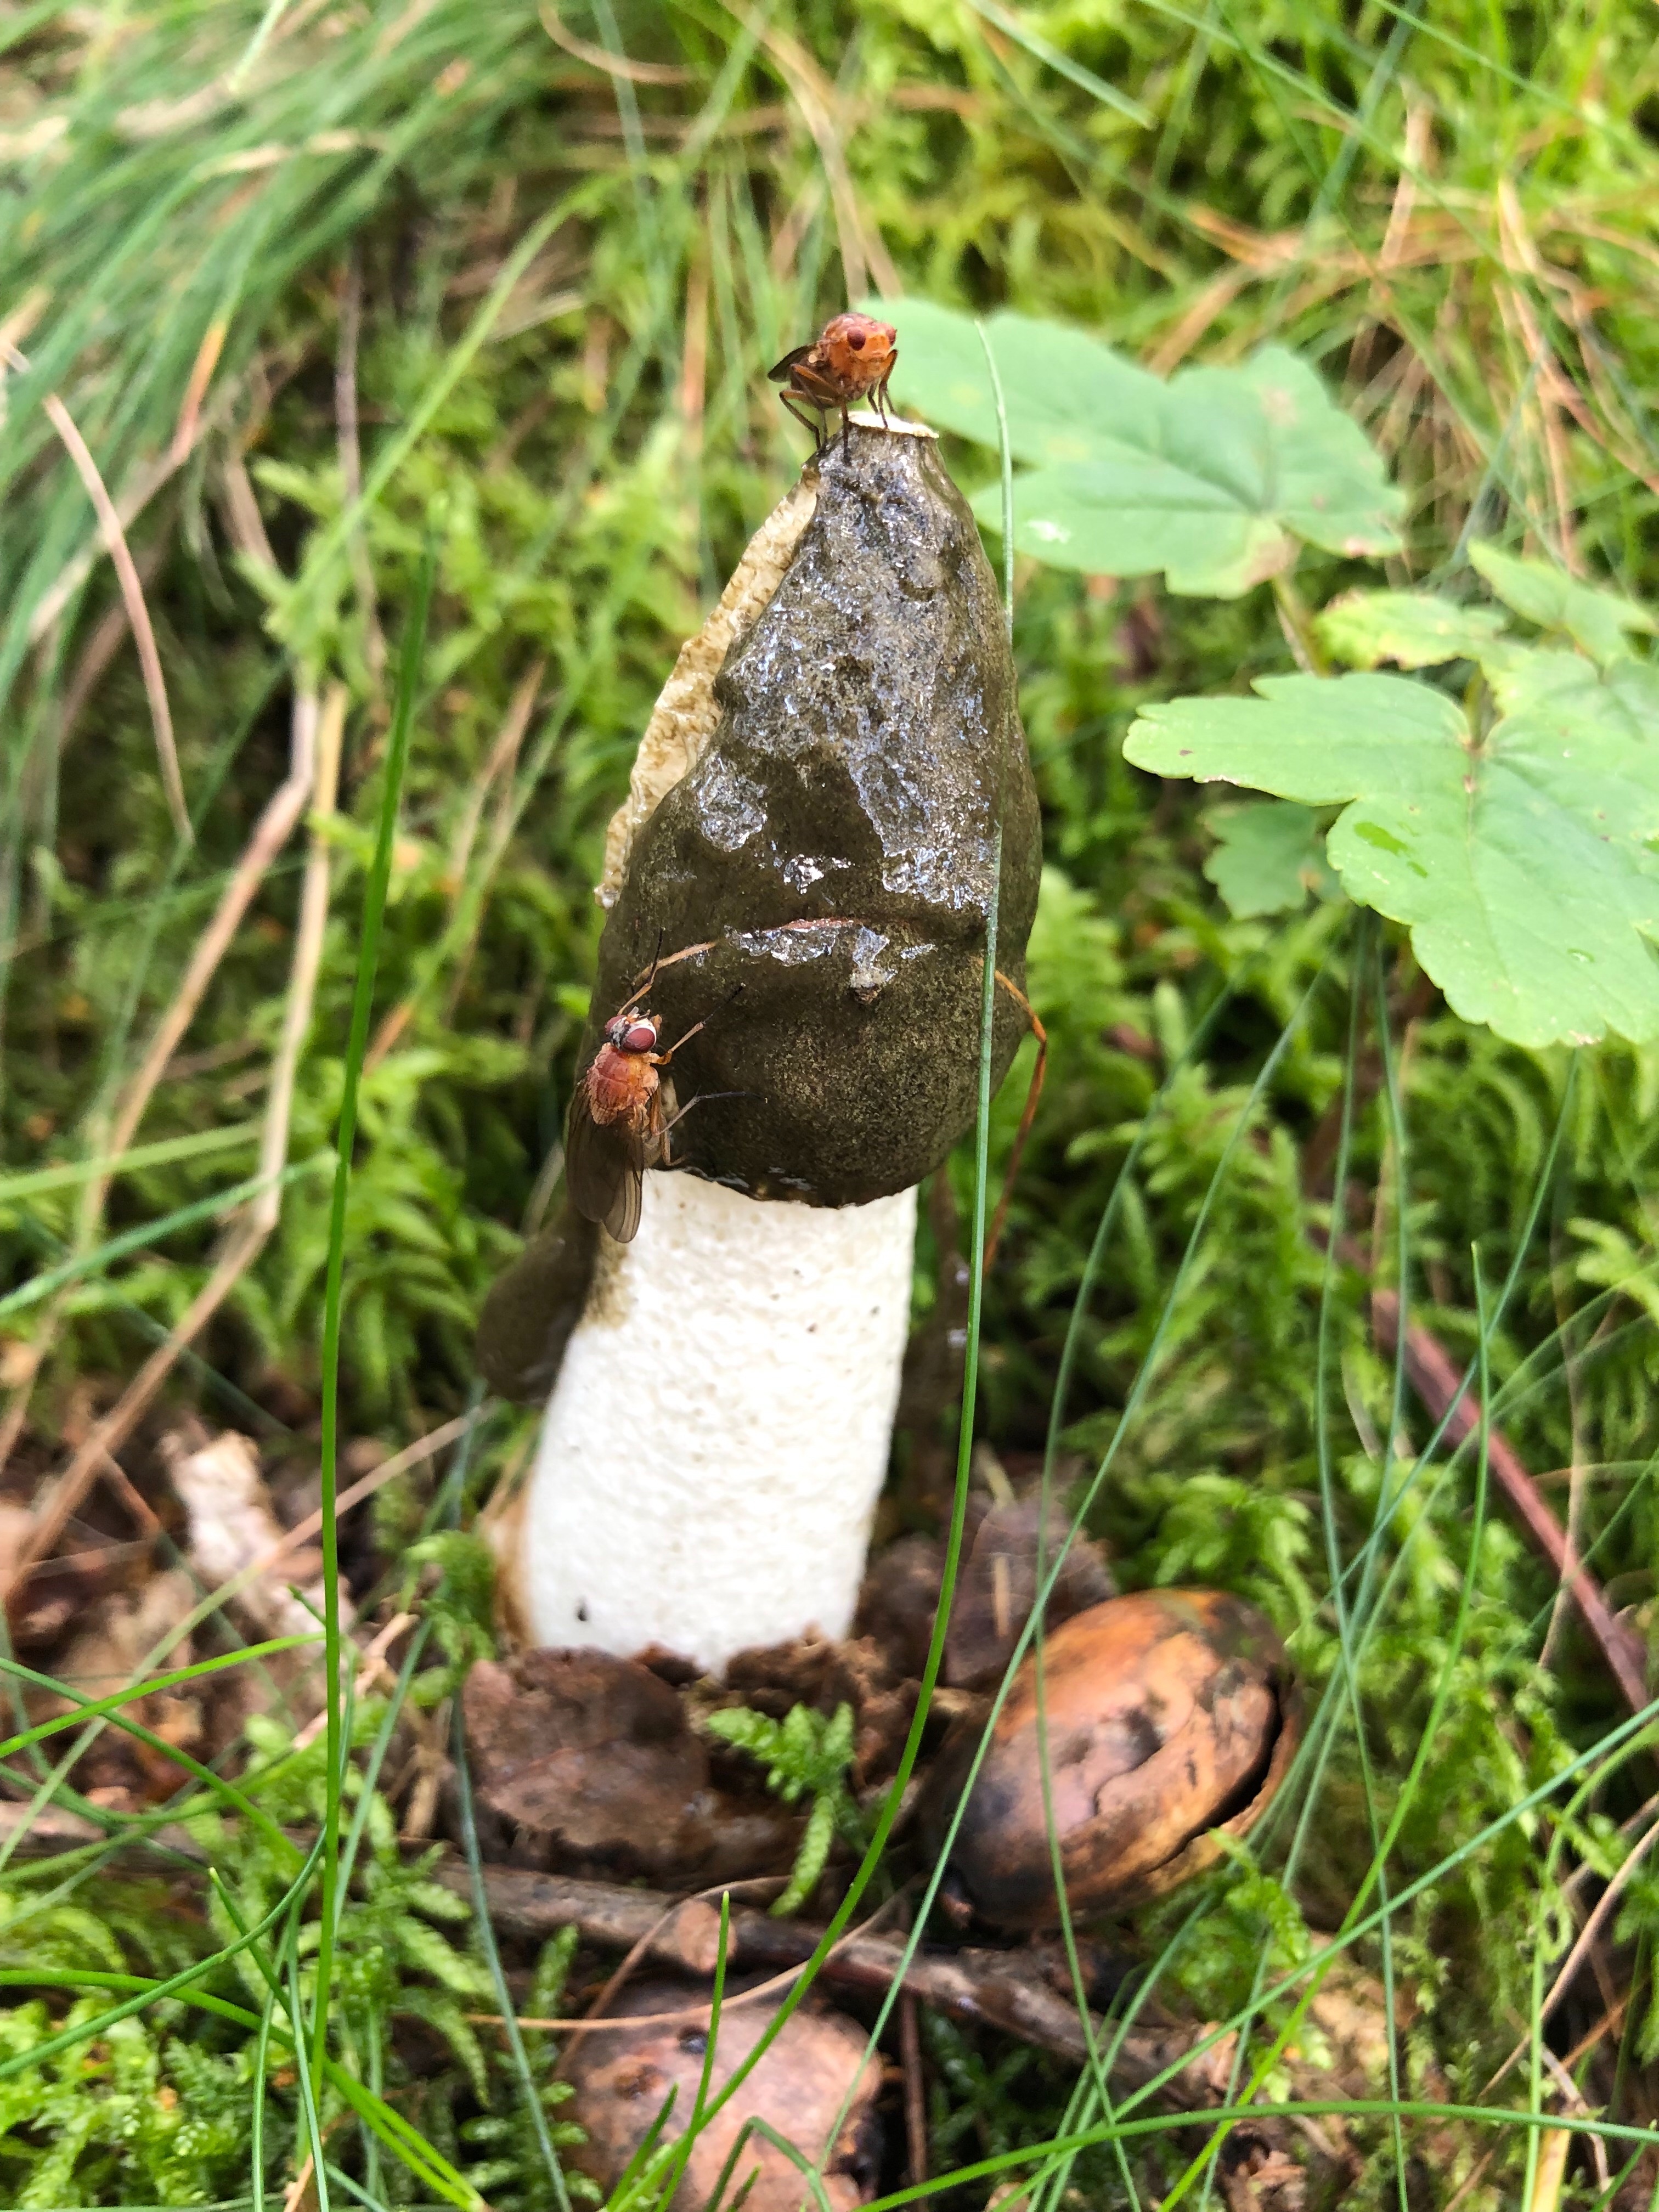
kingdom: Fungi
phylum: Basidiomycota
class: Agaricomycetes
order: Phallales
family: Phallaceae
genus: Phallus
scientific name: Phallus impudicus
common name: almindelig stinksvamp
